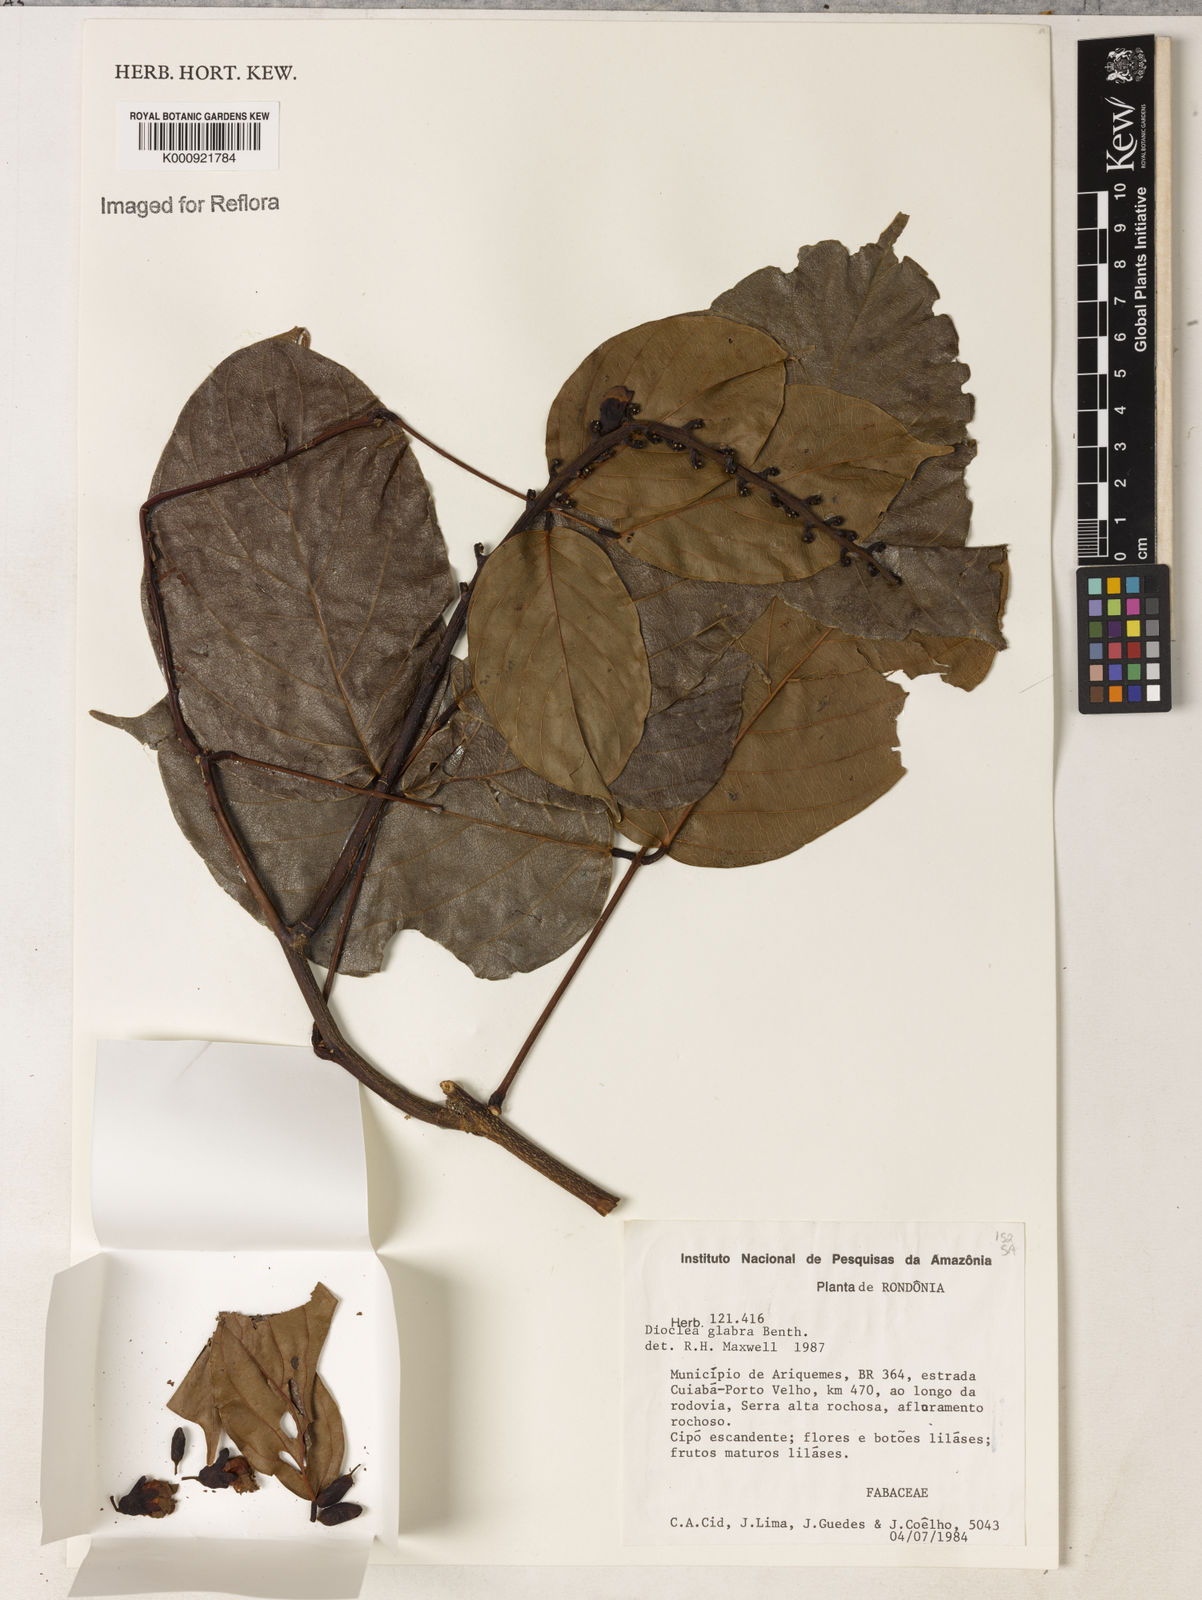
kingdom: Plantae
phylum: Tracheophyta
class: Magnoliopsida
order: Fabales
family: Fabaceae
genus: Macropsychanthus
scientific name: Macropsychanthus glaber
